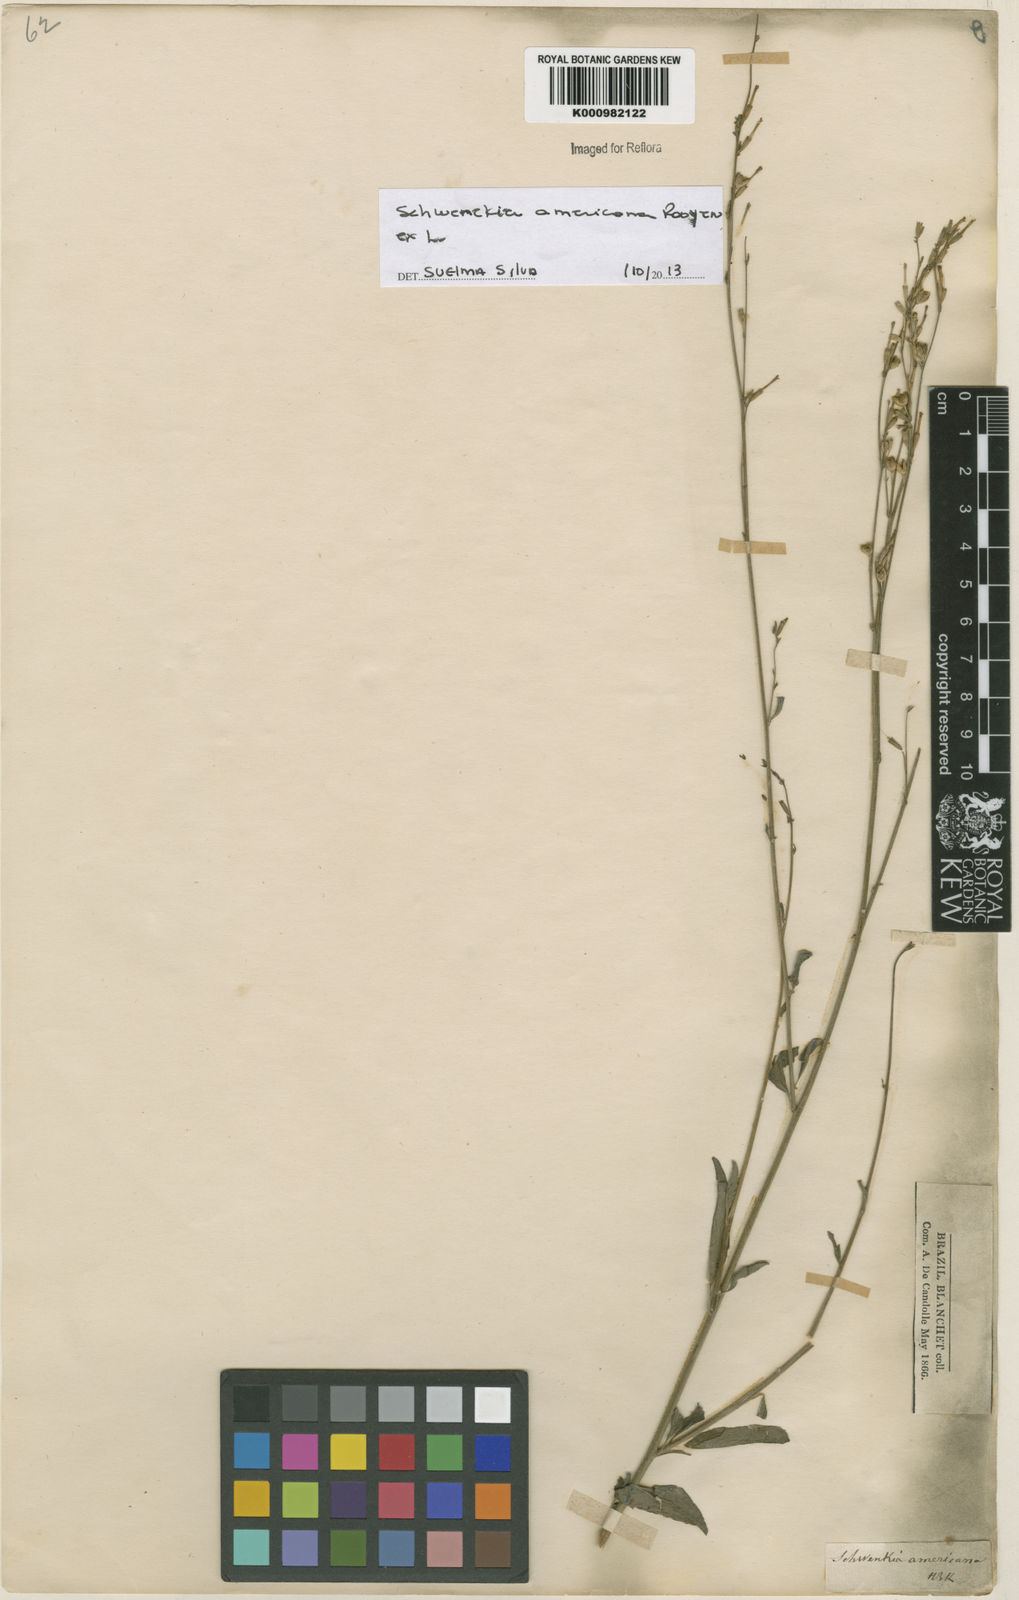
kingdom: Plantae
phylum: Tracheophyta
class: Magnoliopsida
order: Solanales
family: Solanaceae
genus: Schwenckia
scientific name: Schwenckia americana
